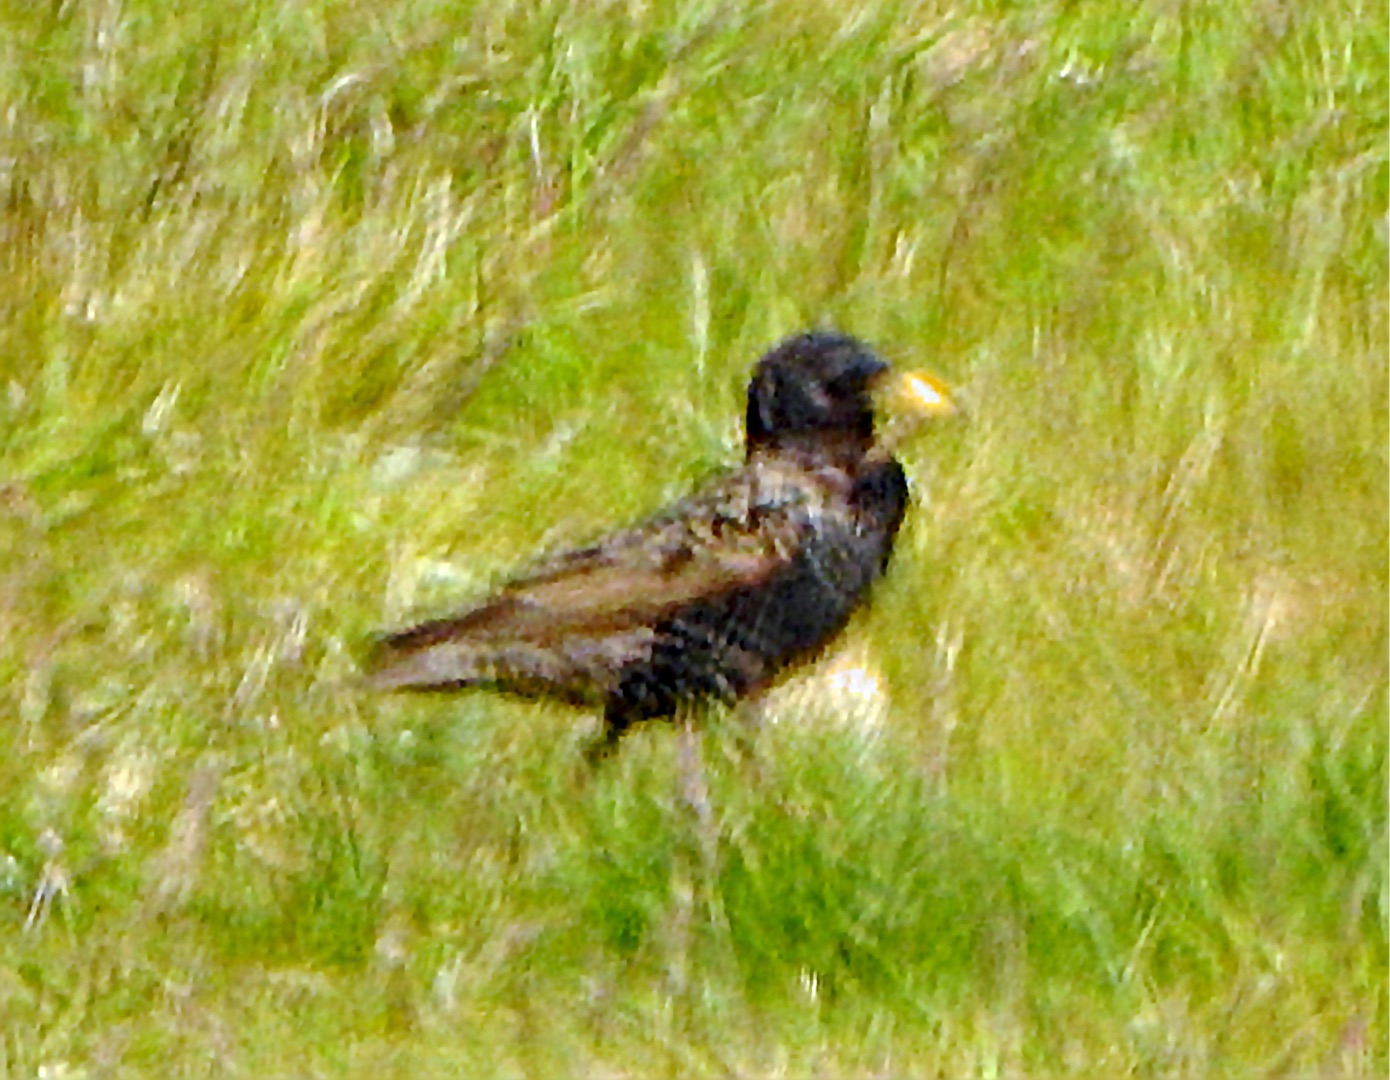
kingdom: Animalia
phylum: Chordata
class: Aves
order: Passeriformes
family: Sturnidae
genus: Sturnus
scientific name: Sturnus vulgaris
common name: Stær
